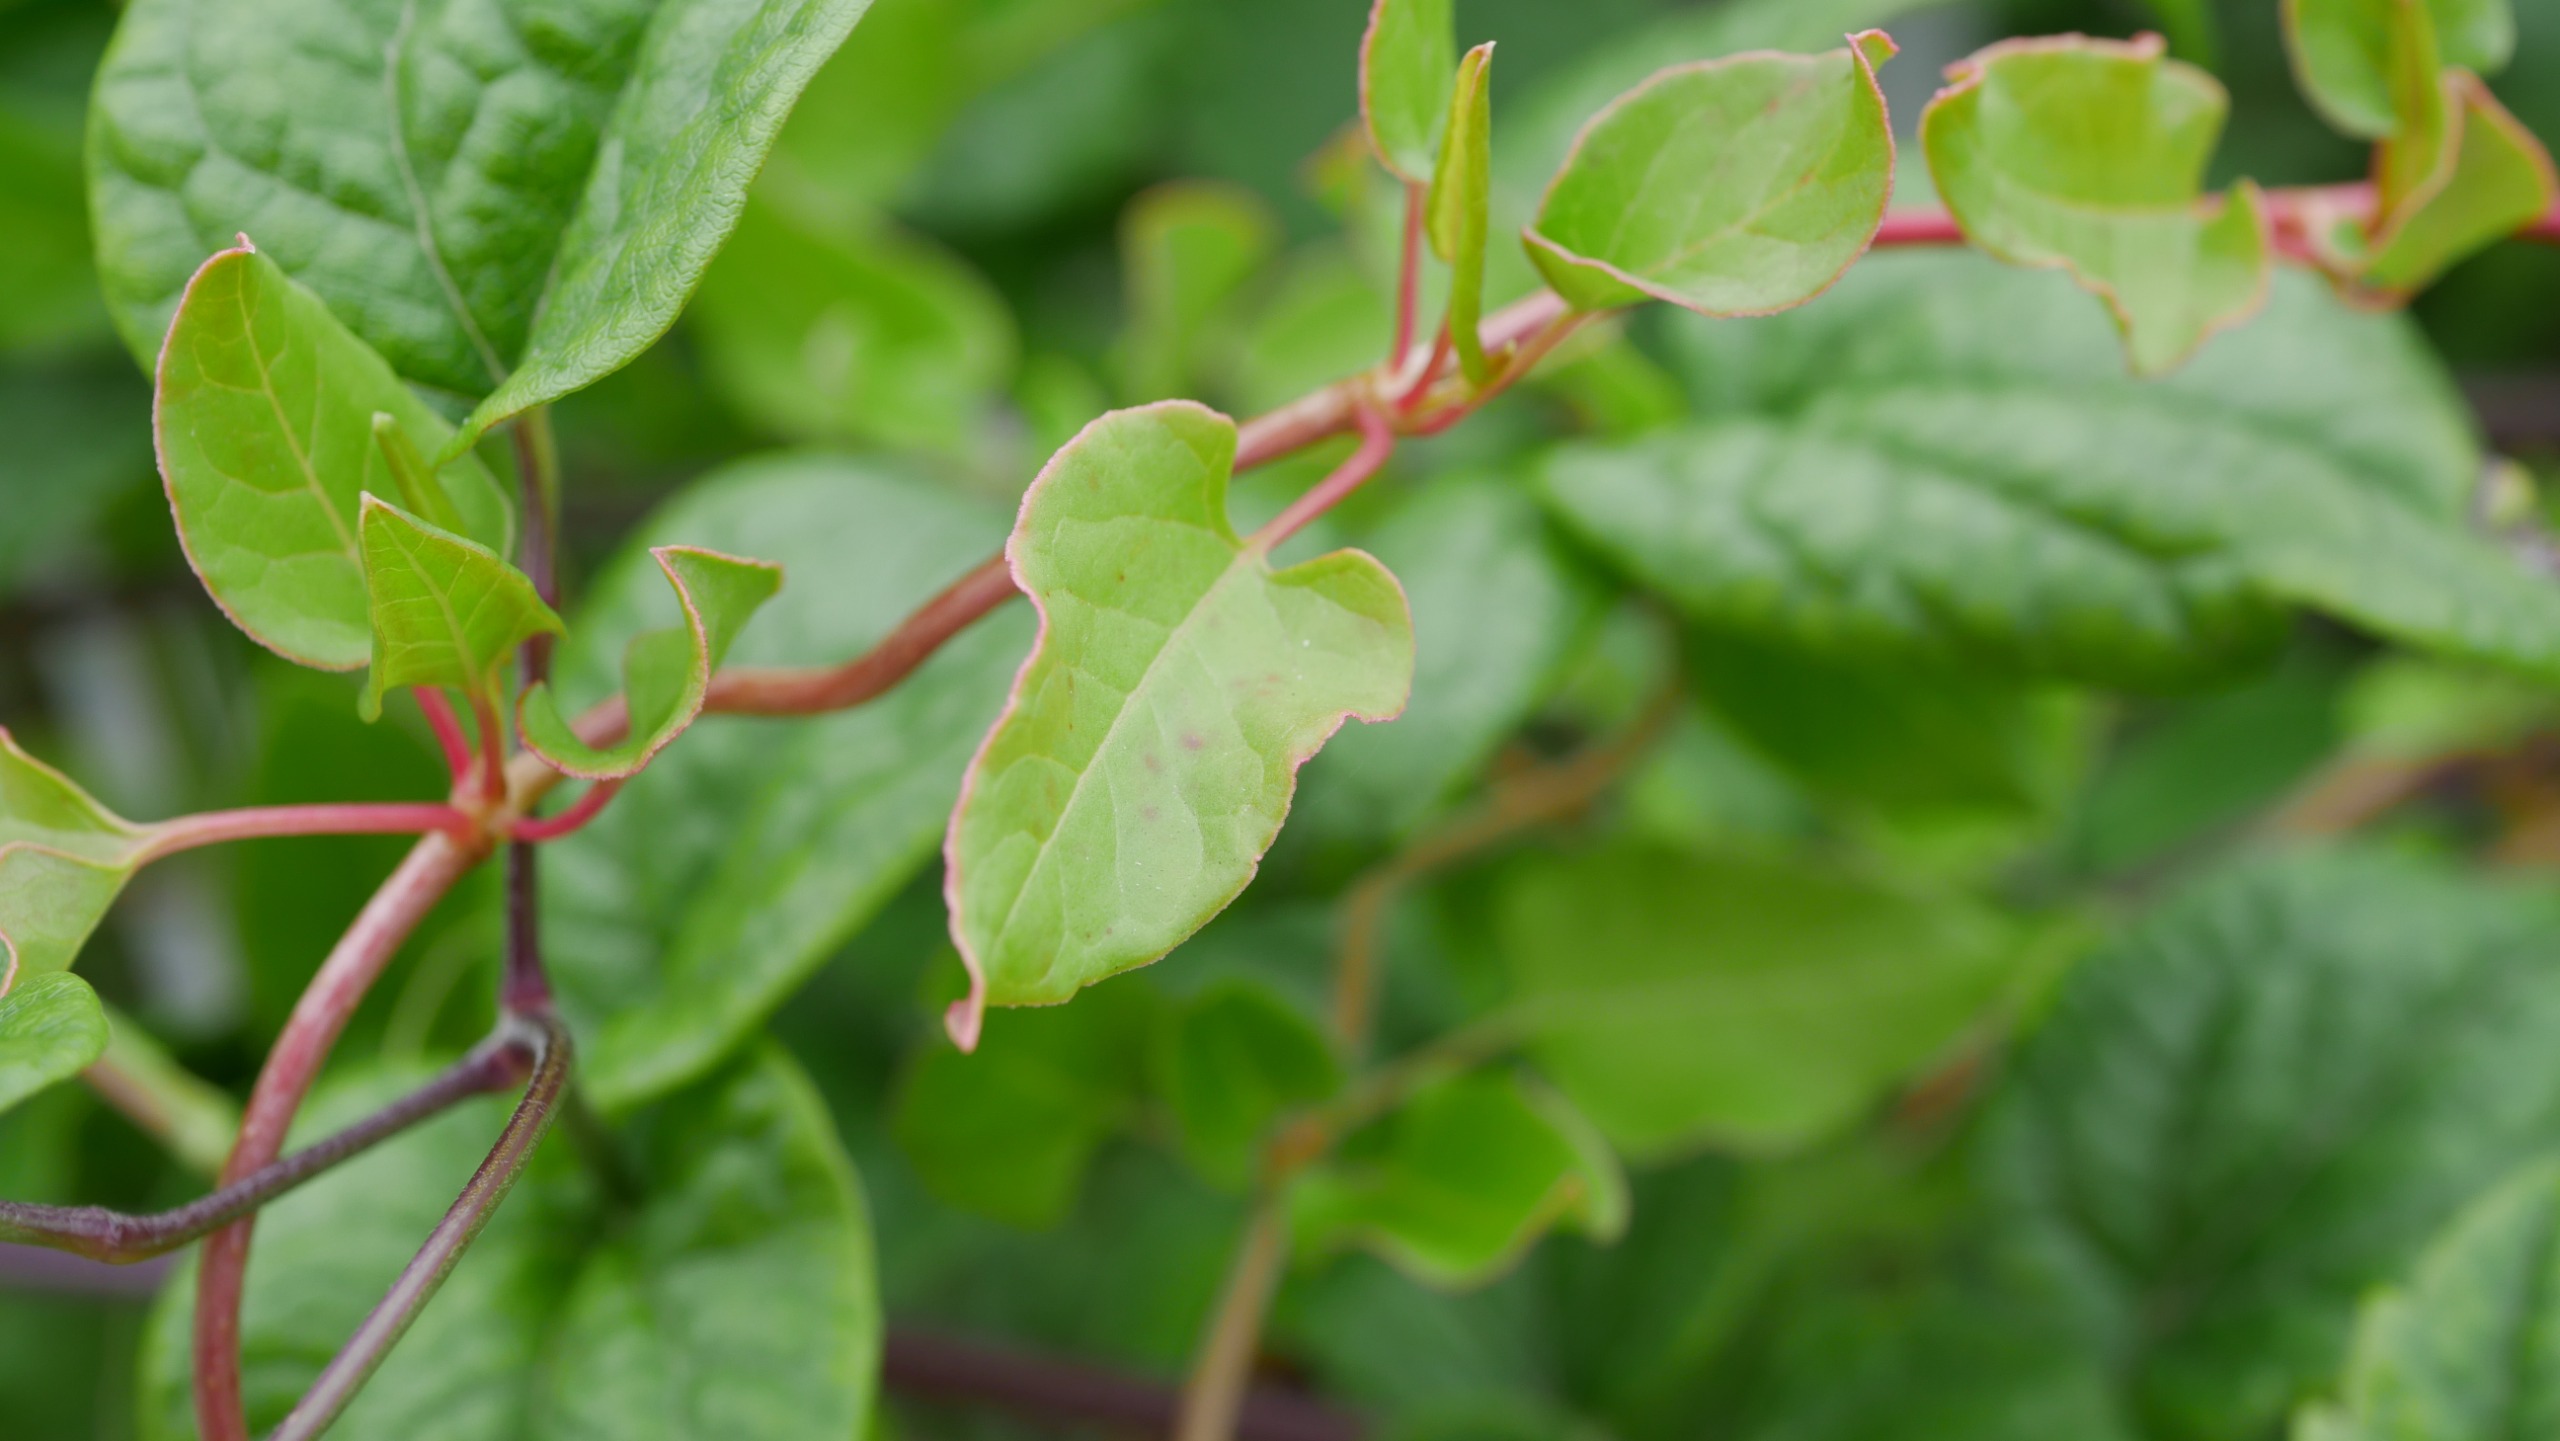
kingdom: Plantae
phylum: Tracheophyta
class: Magnoliopsida
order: Caryophyllales
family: Polygonaceae
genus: Fallopia
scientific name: Fallopia baldschuanica
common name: Sølvregn
